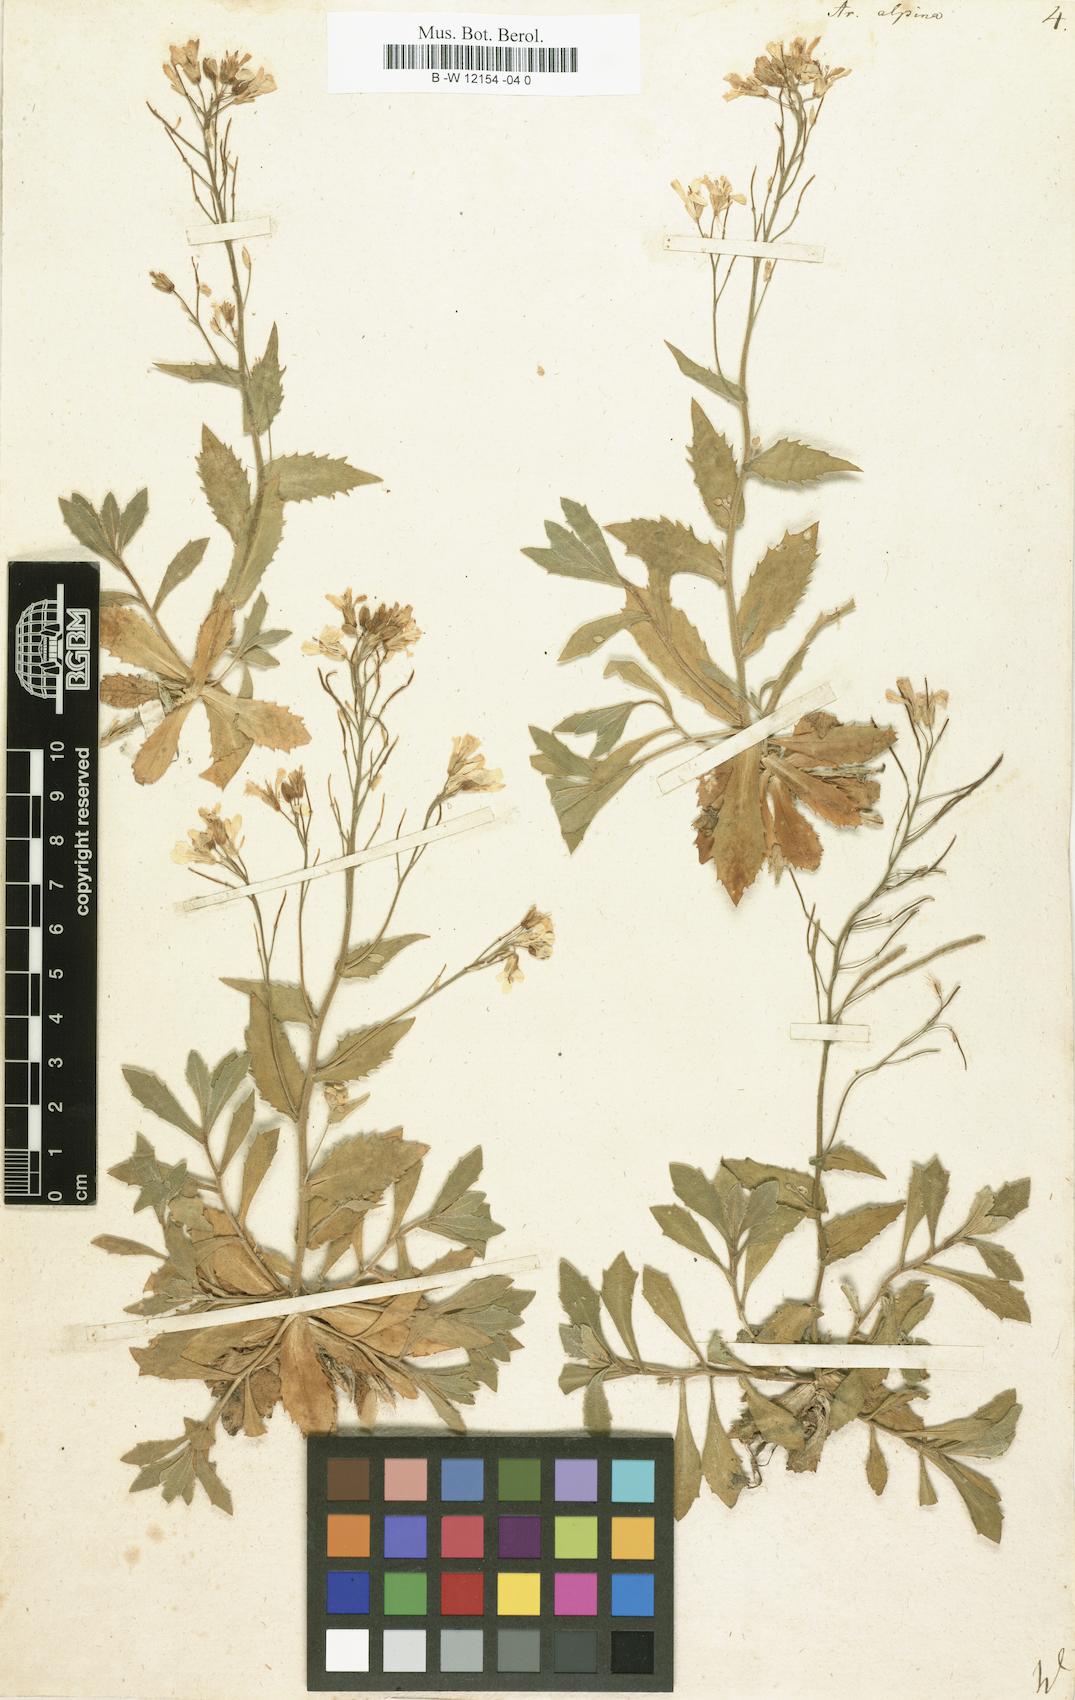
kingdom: Plantae
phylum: Tracheophyta
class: Magnoliopsida
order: Brassicales
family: Brassicaceae
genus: Arabis
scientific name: Arabis alpina
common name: Alpine rock-cress
